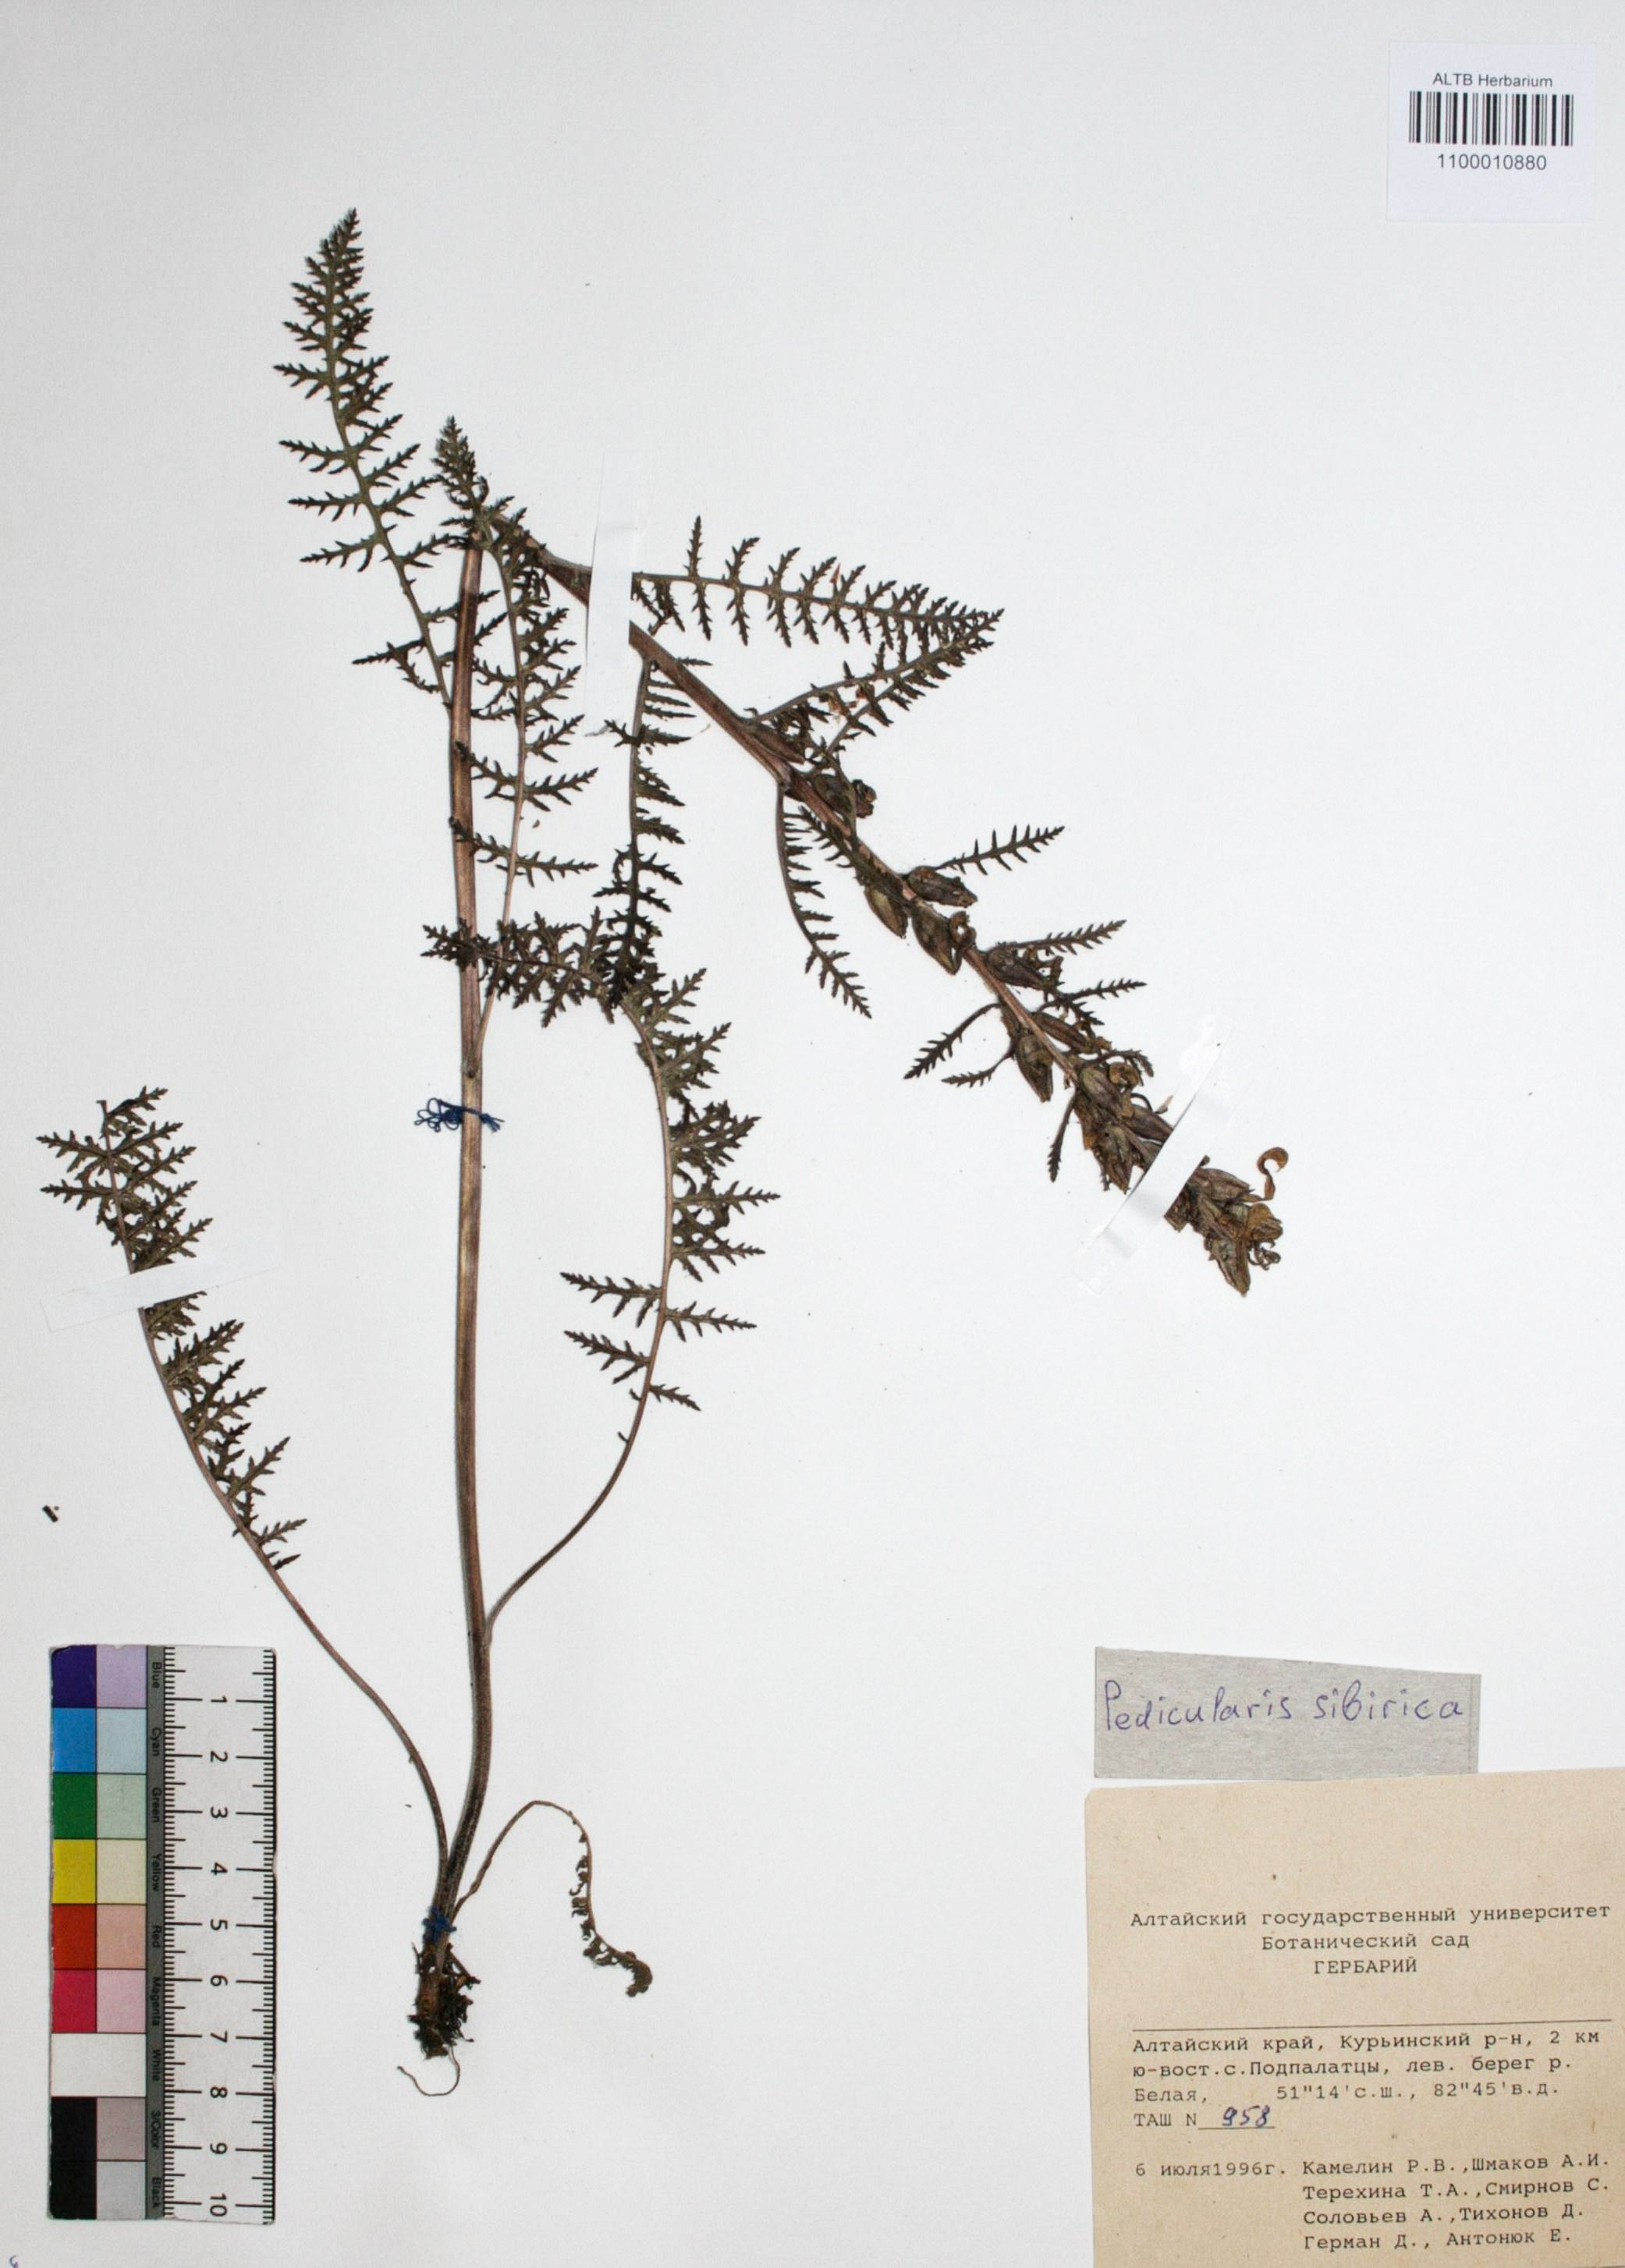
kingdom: Plantae
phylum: Tracheophyta
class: Magnoliopsida
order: Lamiales
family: Orobanchaceae
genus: Pedicularis
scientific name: Pedicularis sibirica
